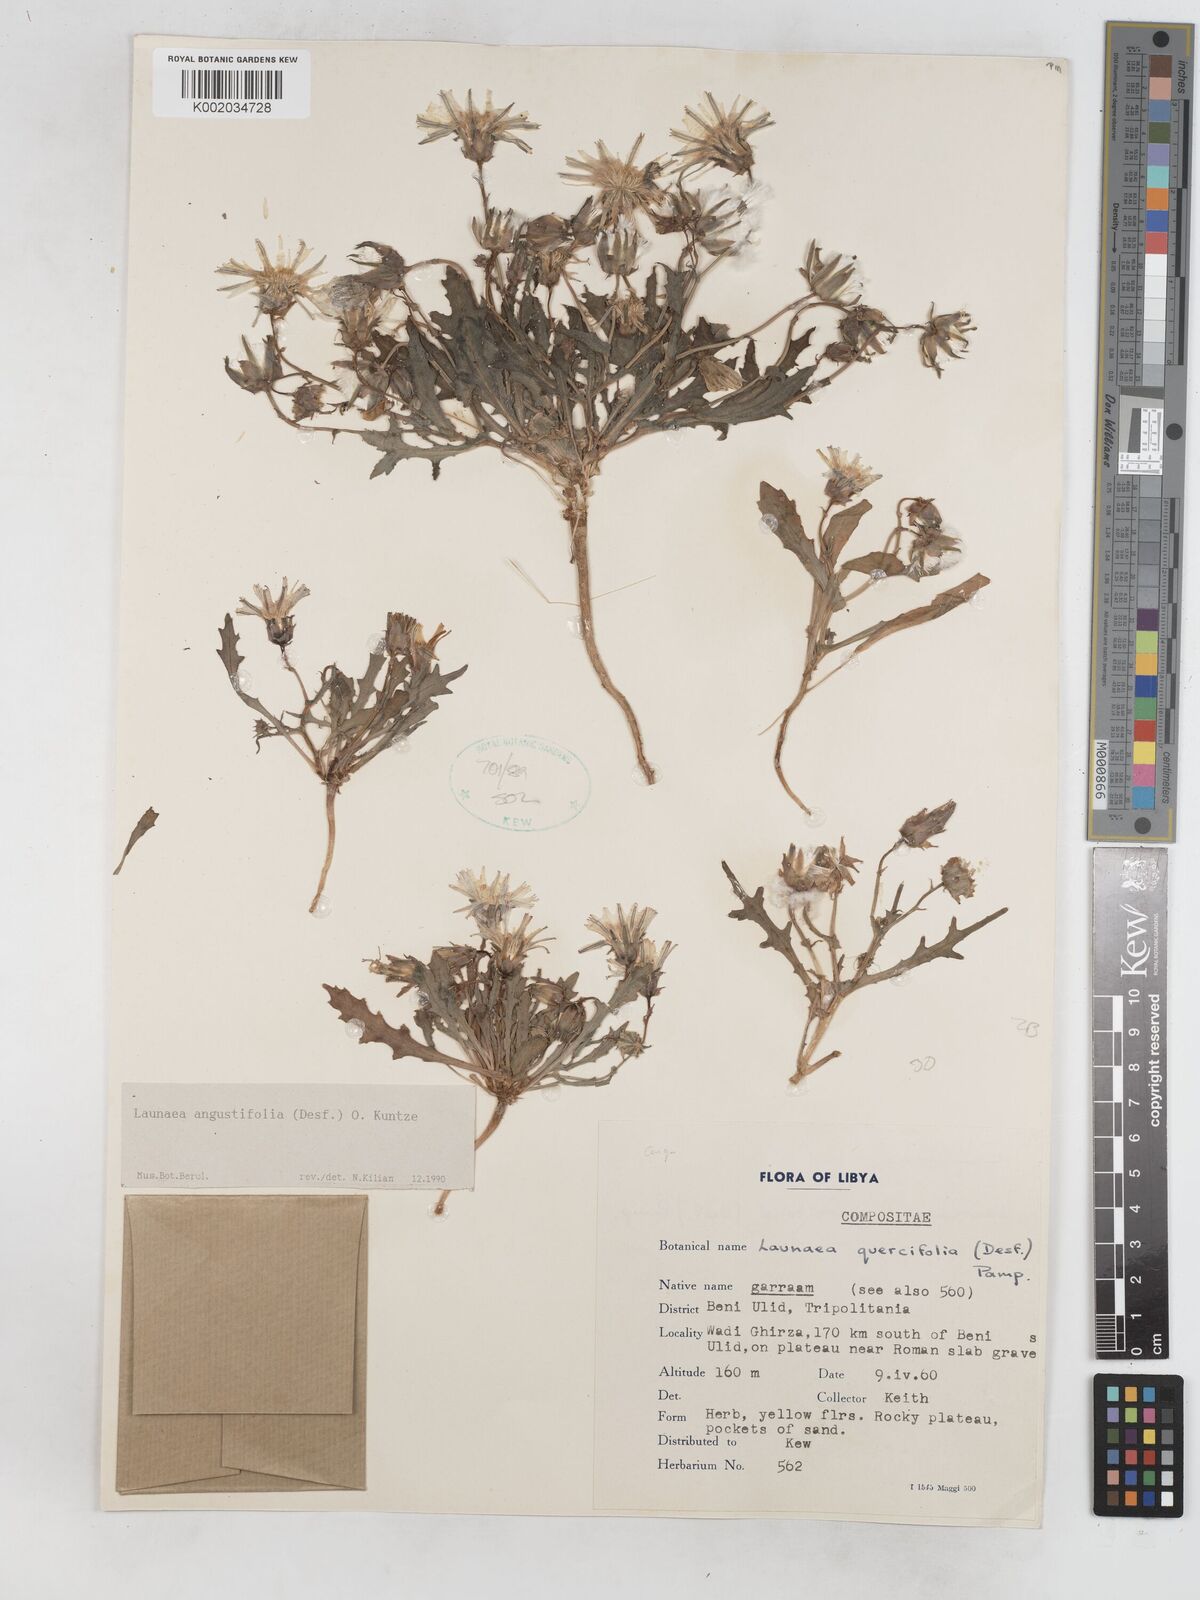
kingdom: Plantae
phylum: Tracheophyta
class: Magnoliopsida
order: Asterales
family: Asteraceae
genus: Launaea
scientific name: Launaea angustifolia
